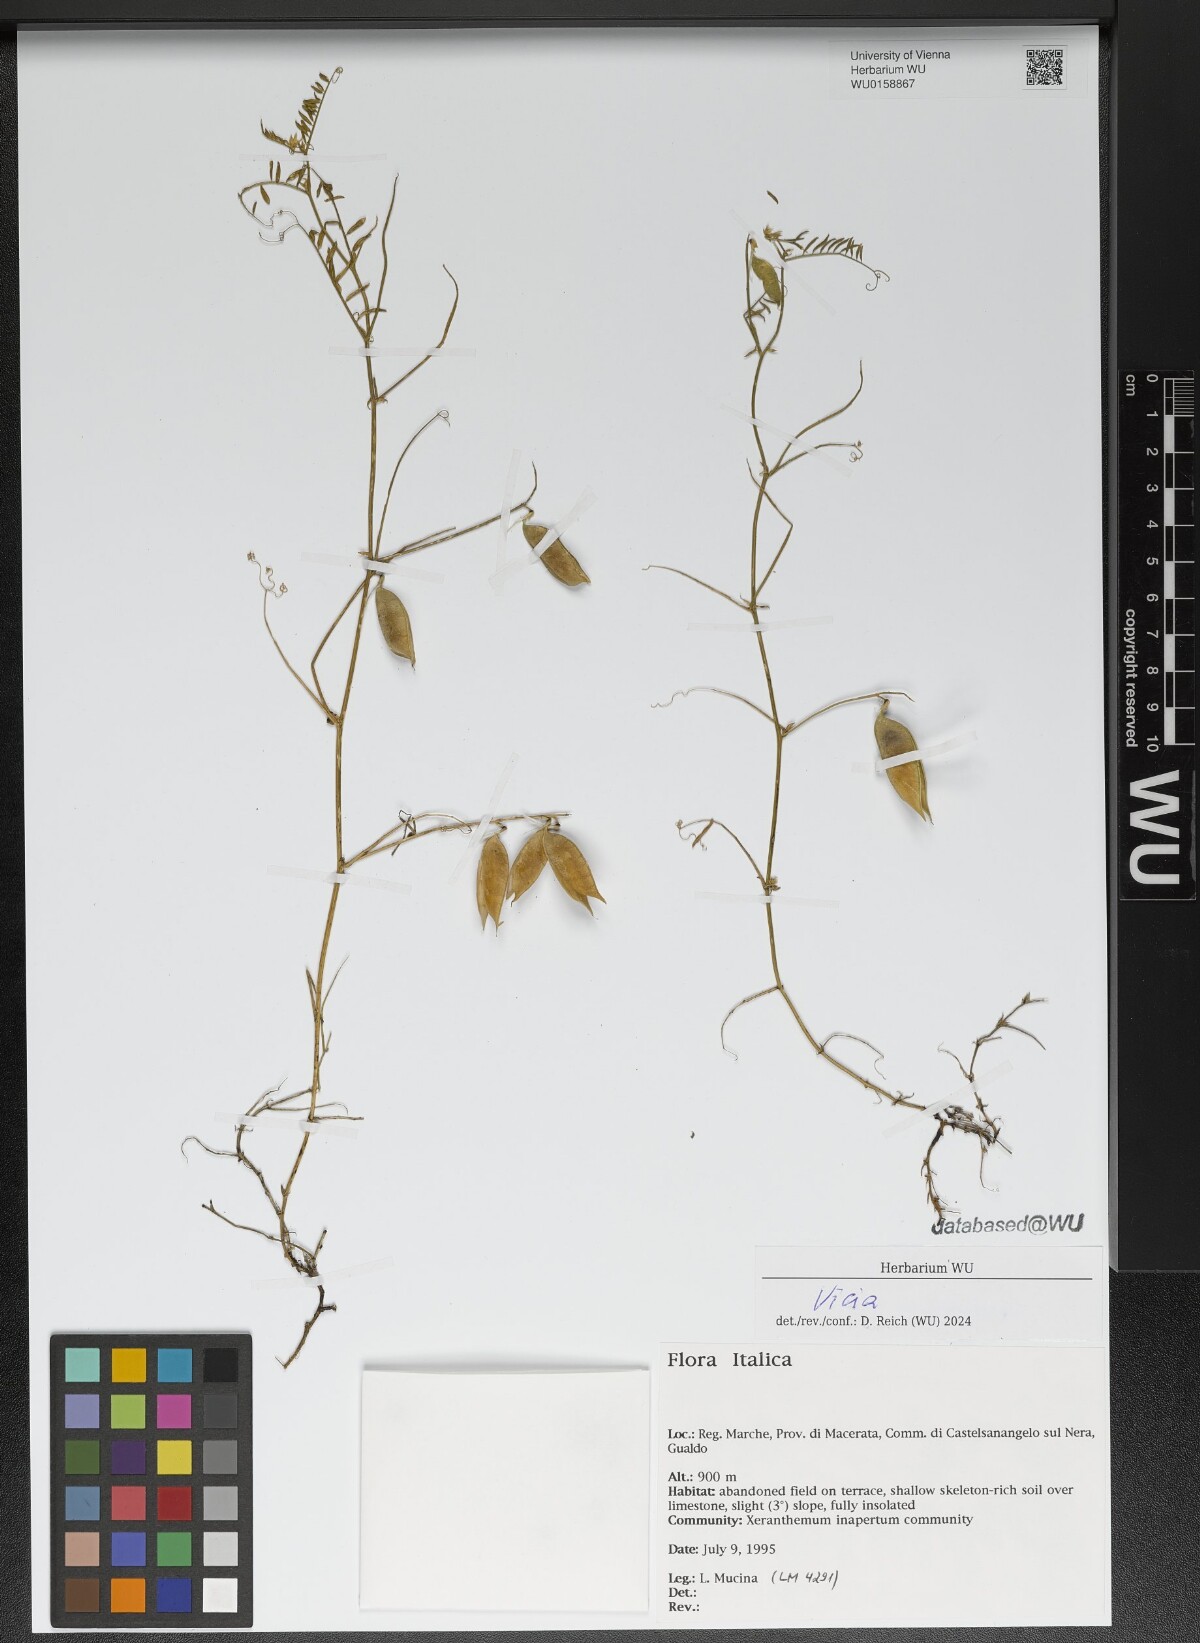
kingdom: Plantae
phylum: Tracheophyta
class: Magnoliopsida
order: Fabales
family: Fabaceae
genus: Vicia
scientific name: Vicia
